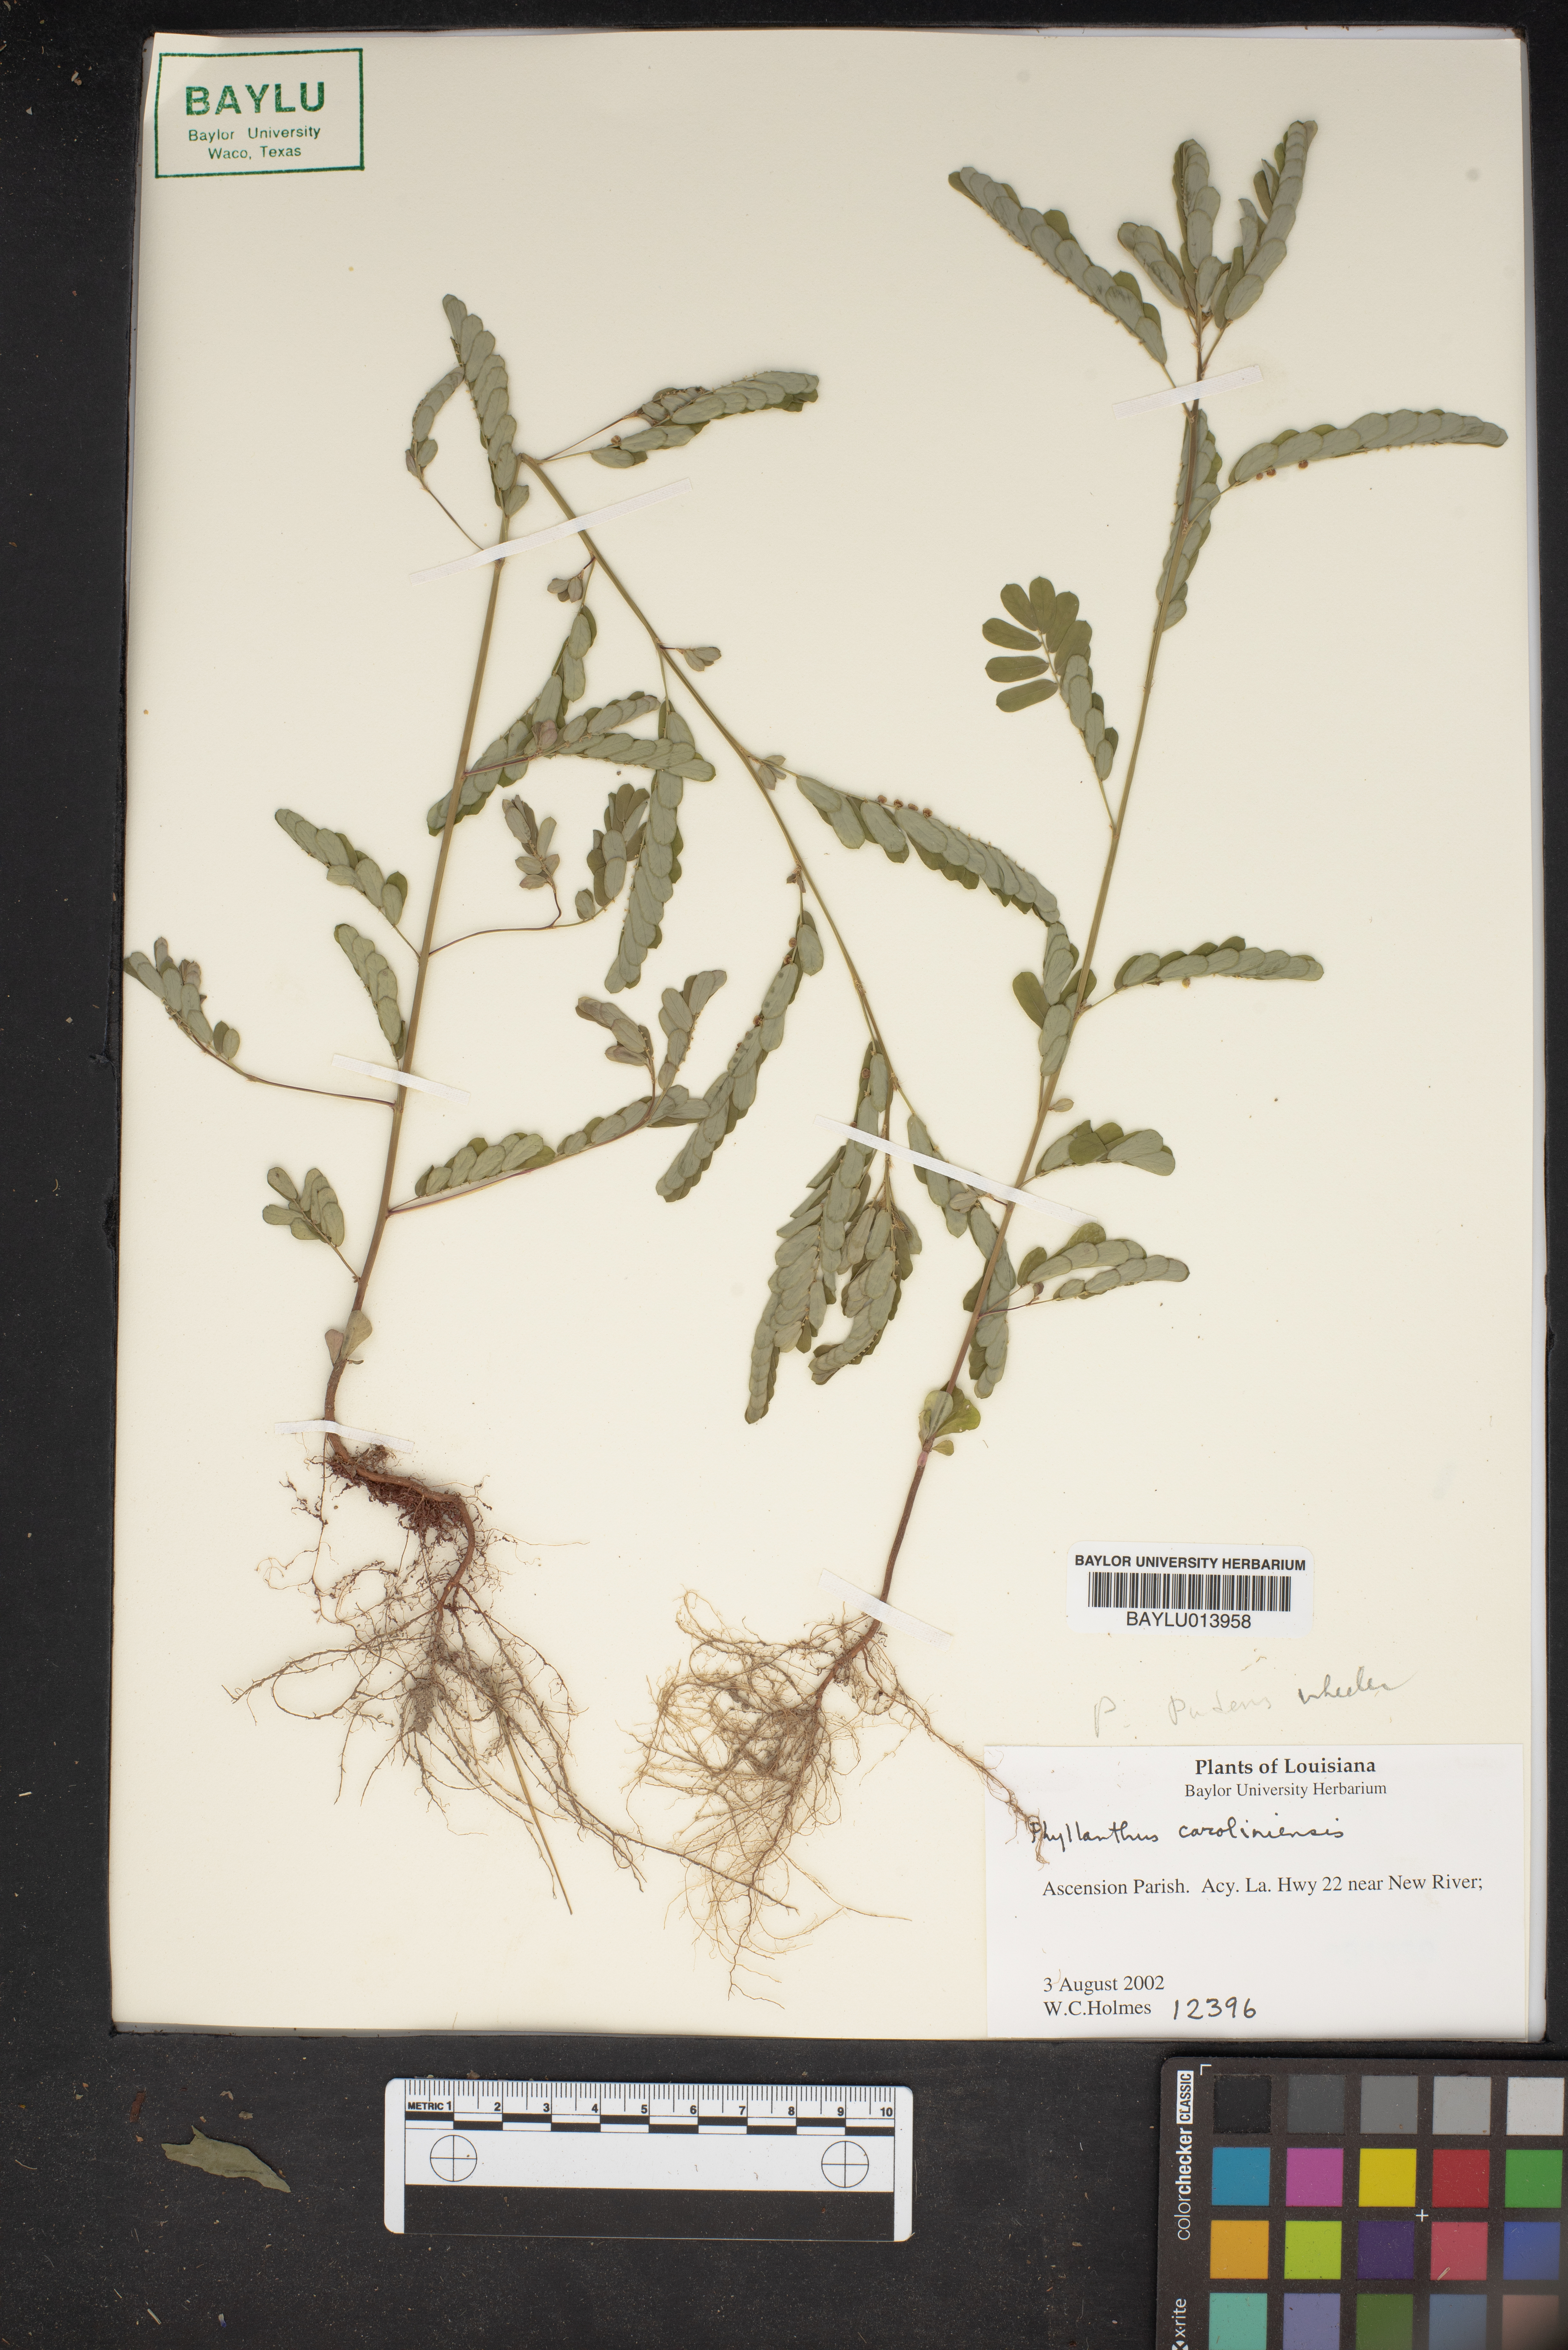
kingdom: Plantae
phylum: Tracheophyta
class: Magnoliopsida
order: Malpighiales
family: Phyllanthaceae
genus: Phyllanthus
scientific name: Phyllanthus carolinensis
